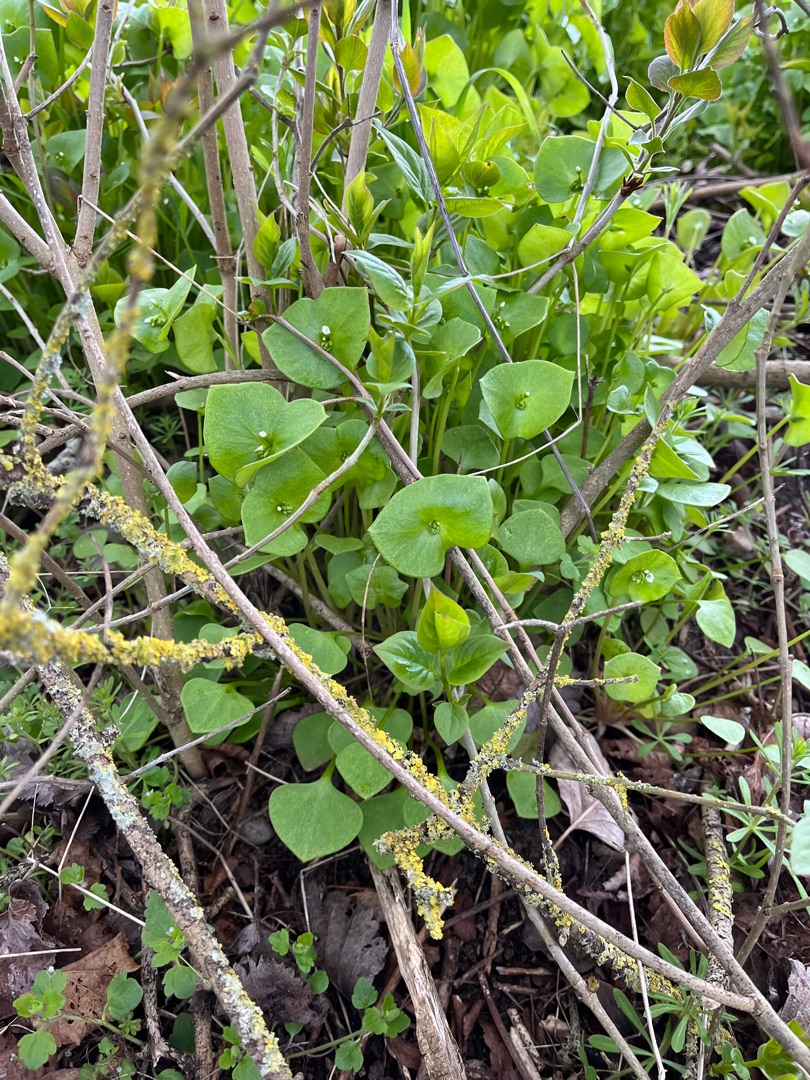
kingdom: Plantae
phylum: Tracheophyta
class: Magnoliopsida
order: Caryophyllales
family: Montiaceae
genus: Claytonia
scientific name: Claytonia perfoliata
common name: Spiselig vinterportulak
